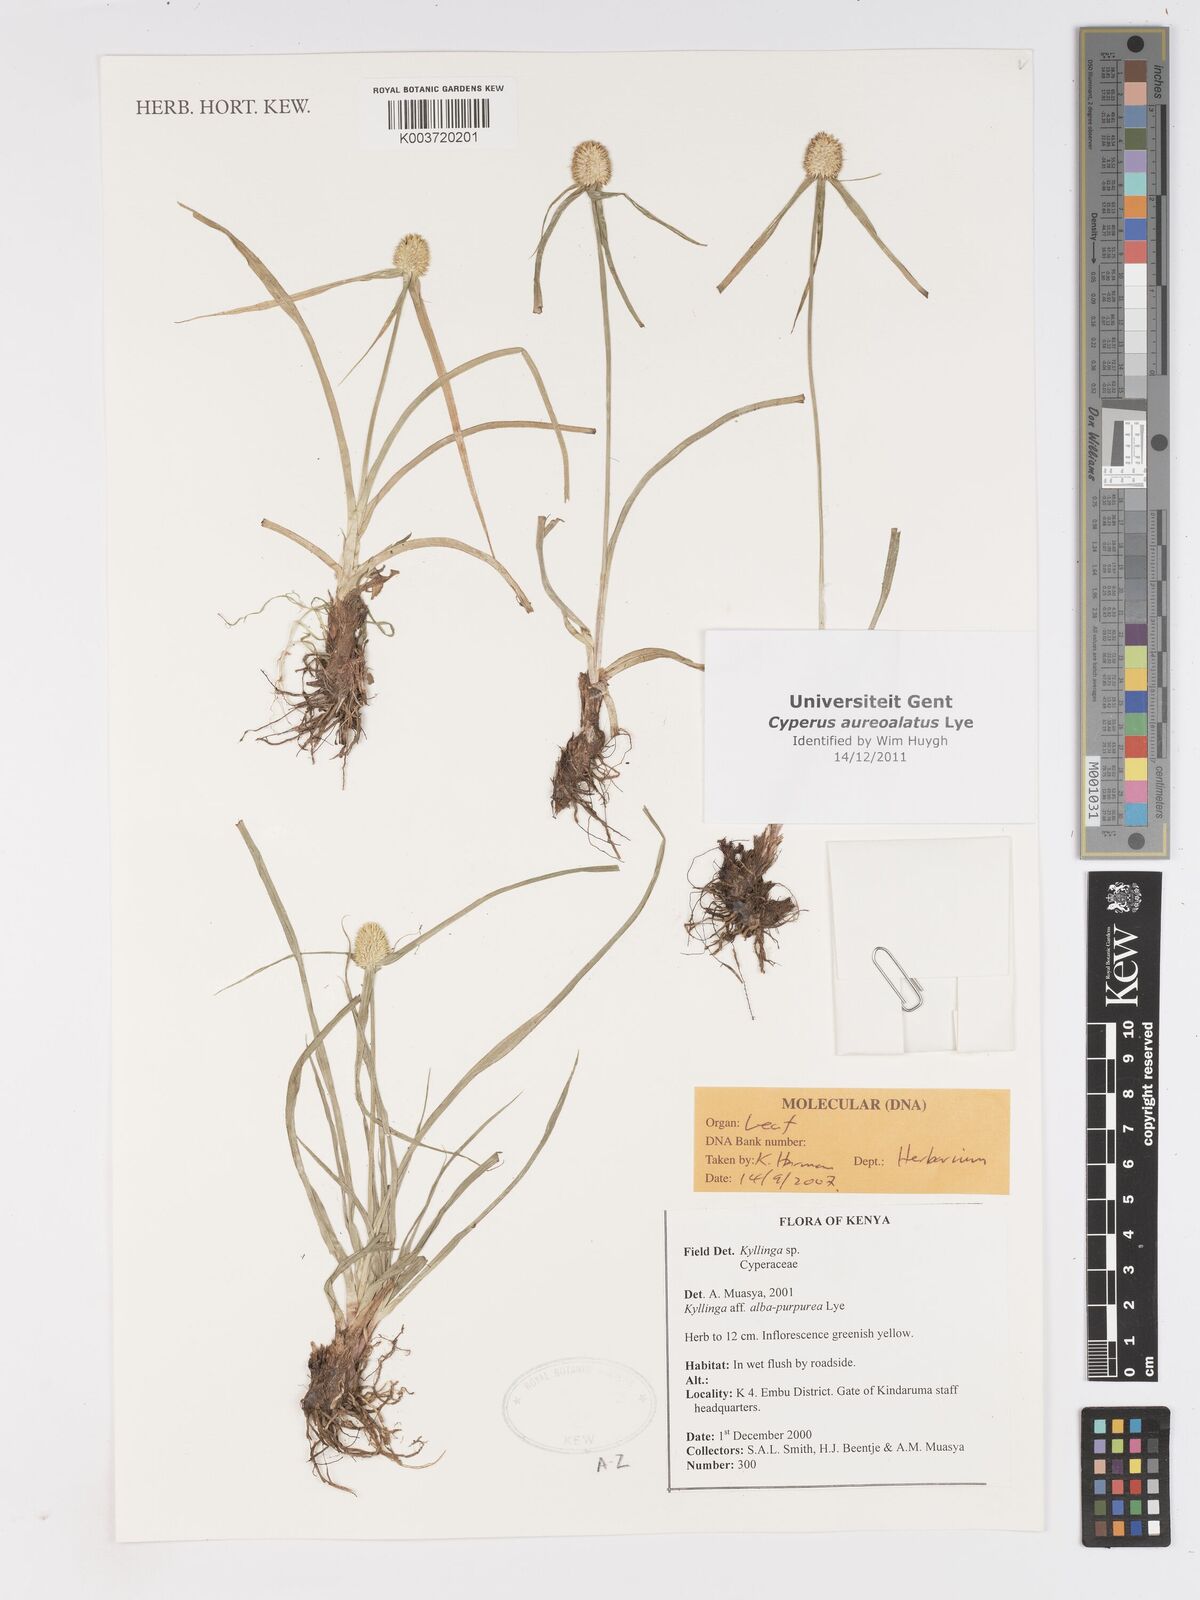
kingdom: Plantae
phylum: Tracheophyta
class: Liliopsida
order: Poales
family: Cyperaceae
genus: Cyperus
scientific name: Cyperus aureoalatus
